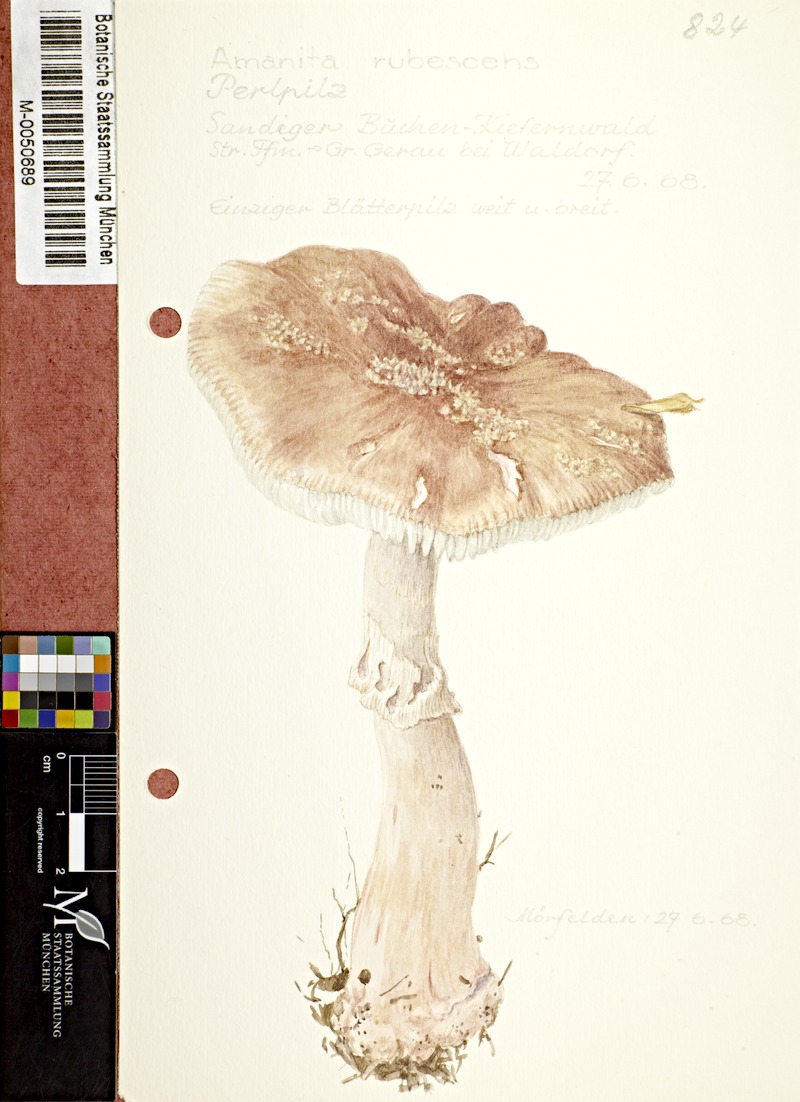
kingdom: Fungi
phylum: Basidiomycota
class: Agaricomycetes
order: Agaricales
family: Amanitaceae
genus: Amanita
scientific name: Amanita rubescens
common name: Blusher
